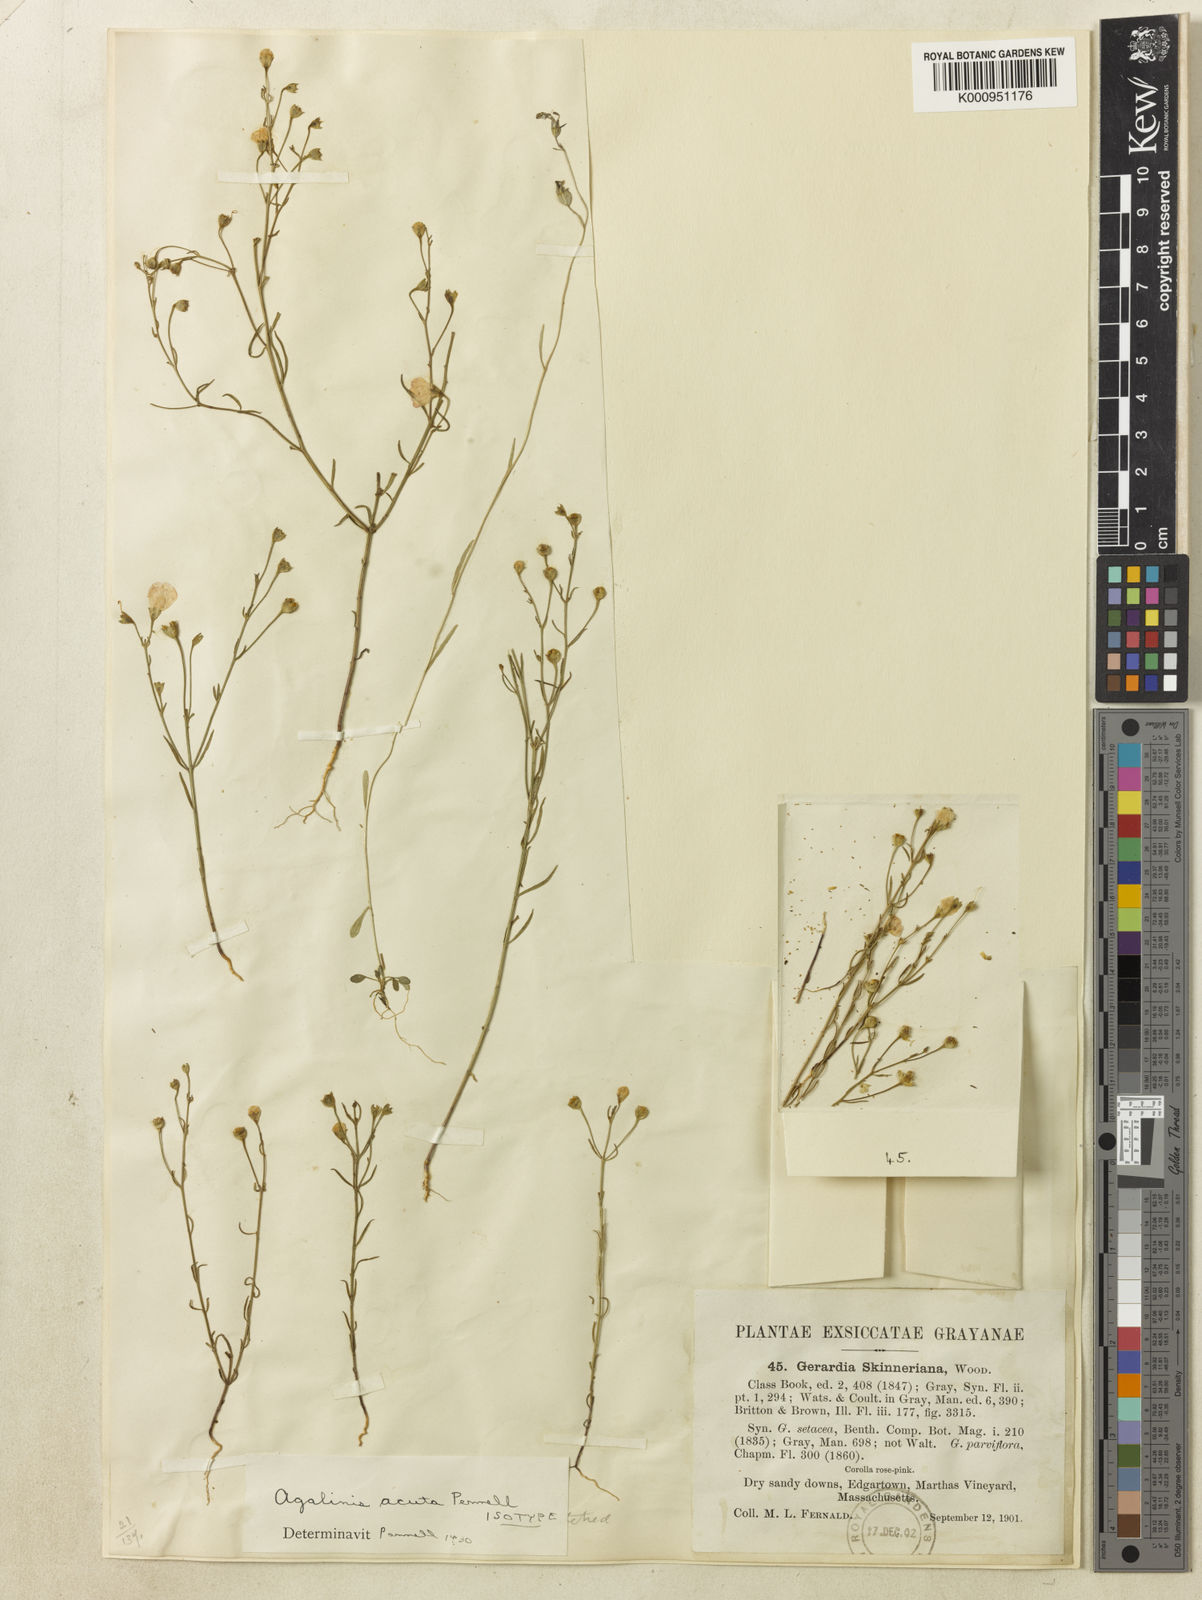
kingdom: Plantae
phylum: Tracheophyta
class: Magnoliopsida
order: Lamiales
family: Orobanchaceae
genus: Agalinis
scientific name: Agalinis decemloba
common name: Ten-lobed false foxglove
